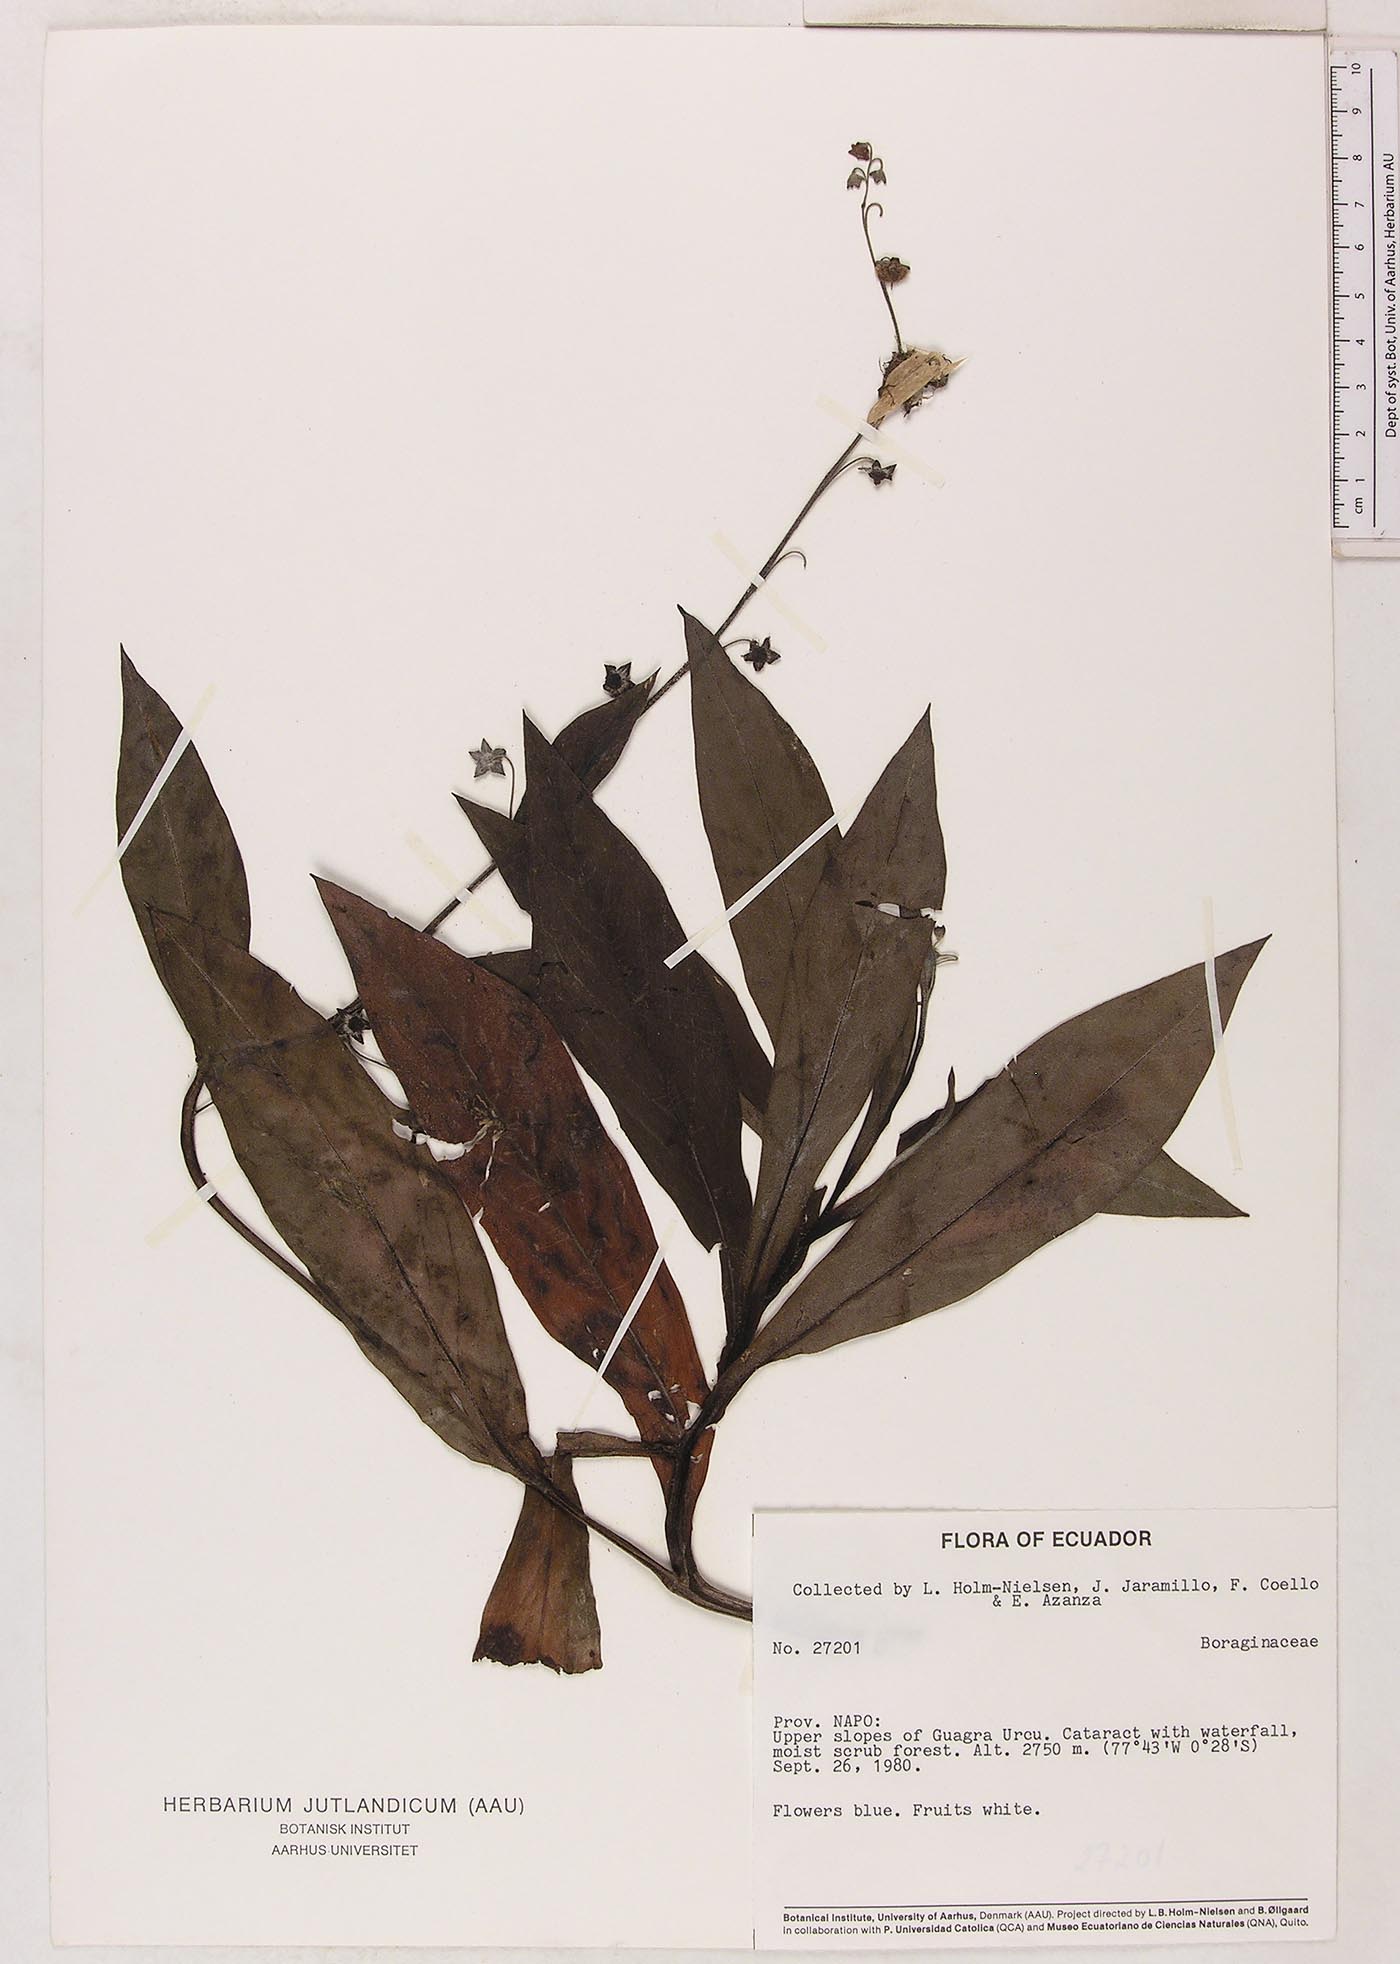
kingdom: Plantae
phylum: Tracheophyta
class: Magnoliopsida
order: Boraginales
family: Boraginaceae
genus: Selkirkia
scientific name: Selkirkia trianaeum
